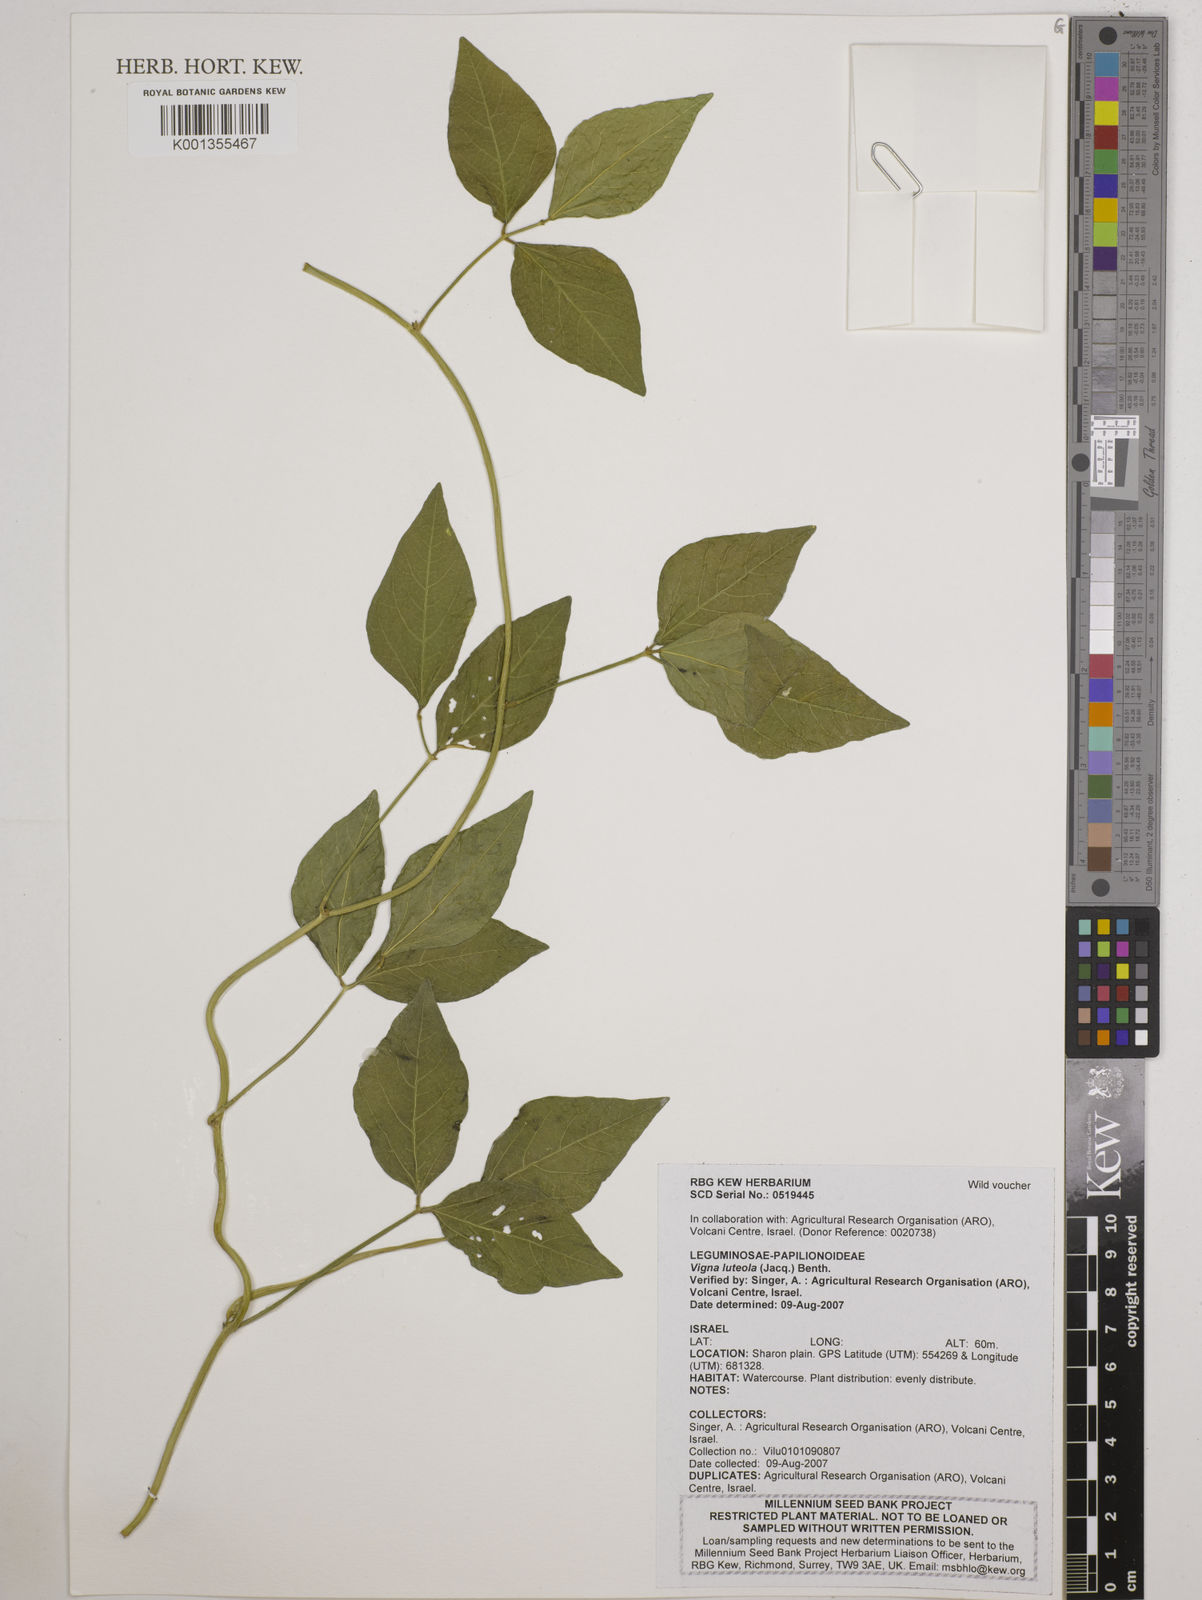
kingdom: Plantae
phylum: Tracheophyta
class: Magnoliopsida
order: Fabales
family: Fabaceae
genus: Vigna
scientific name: Vigna luteola
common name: Hairypod cowpea
